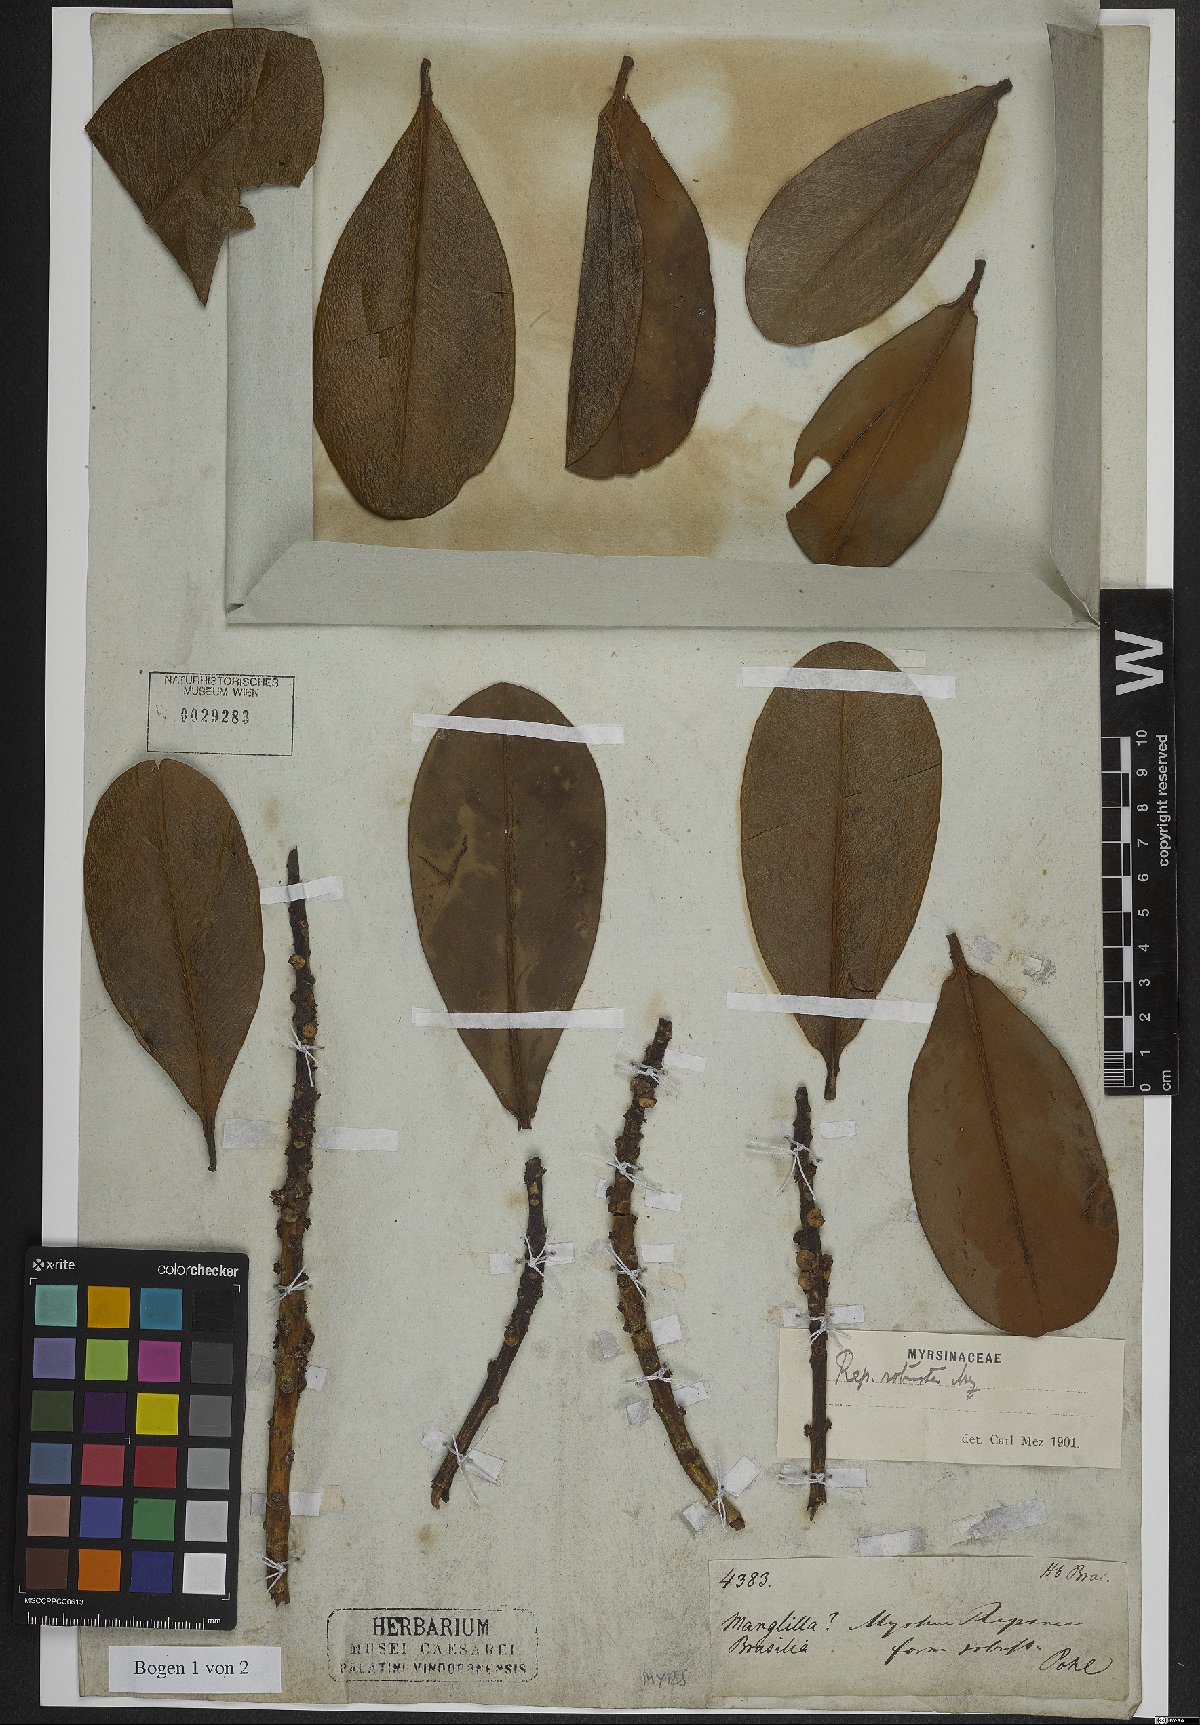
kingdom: Plantae
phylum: Tracheophyta
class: Magnoliopsida
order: Ericales
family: Primulaceae
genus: Myrsine
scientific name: Myrsine robusta
